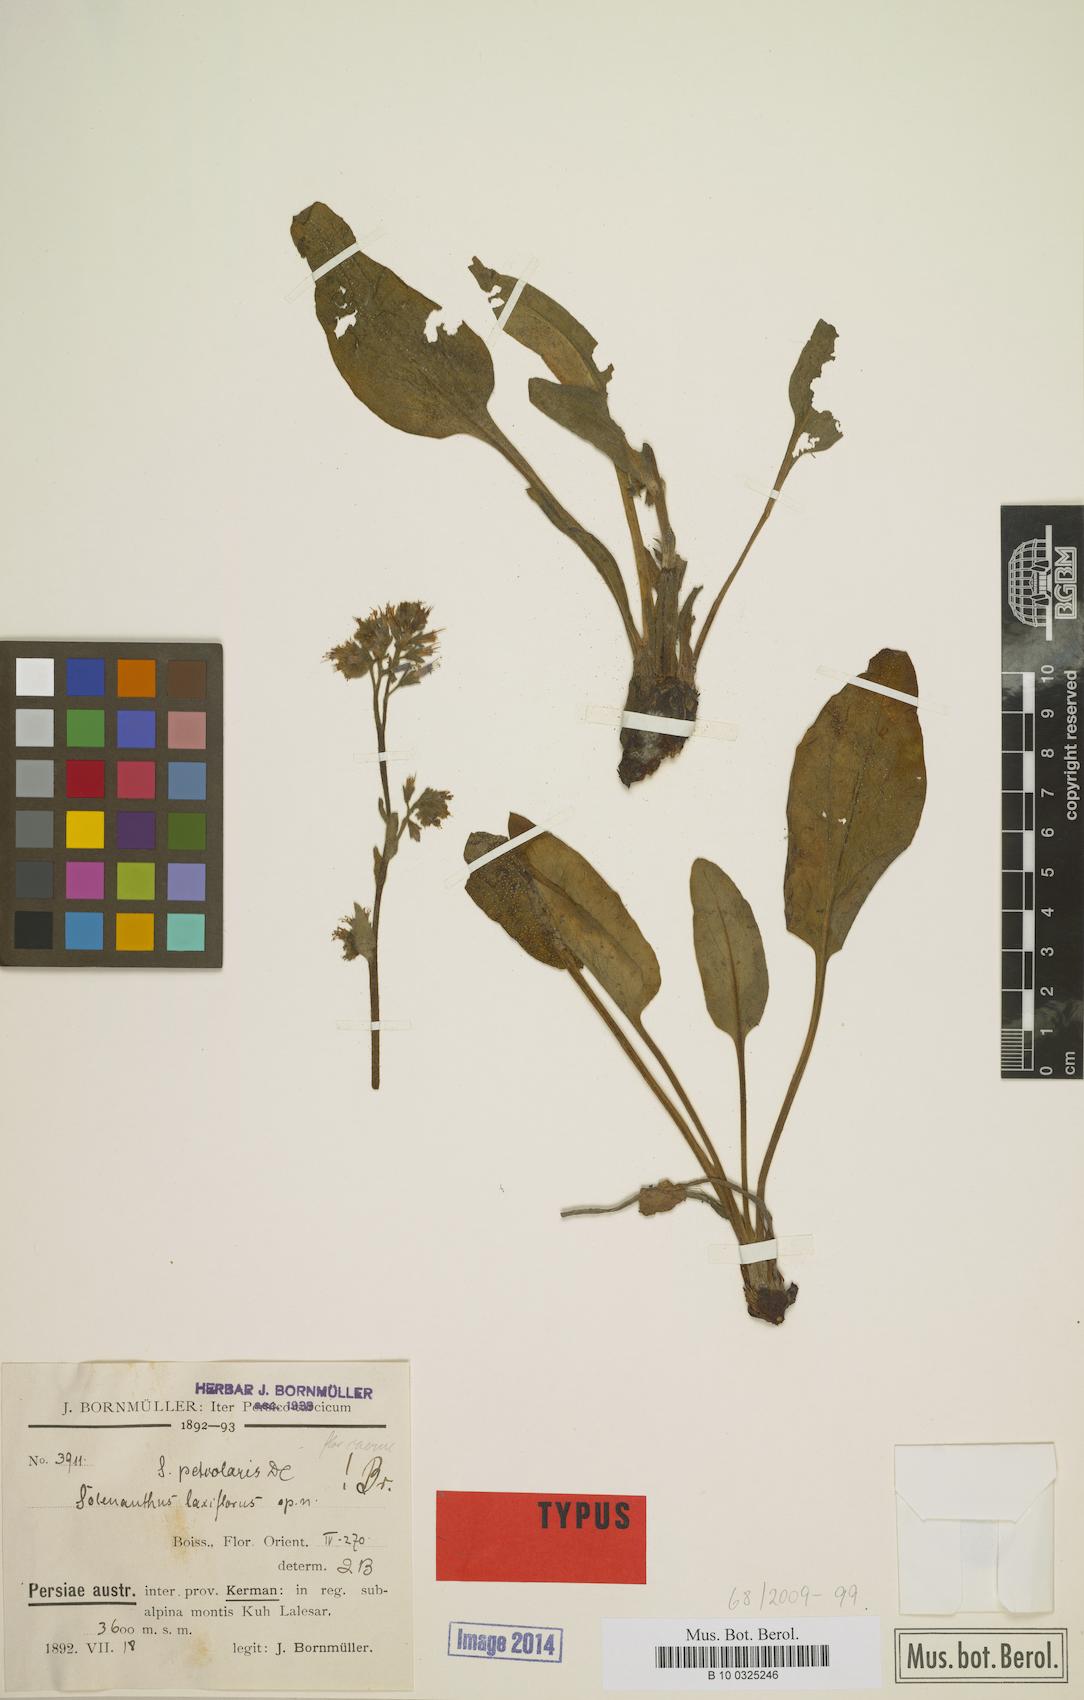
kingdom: Plantae
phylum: Tracheophyta
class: Magnoliopsida
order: Boraginales
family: Boraginaceae
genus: Solenanthus
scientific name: Solenanthus circinnatus
